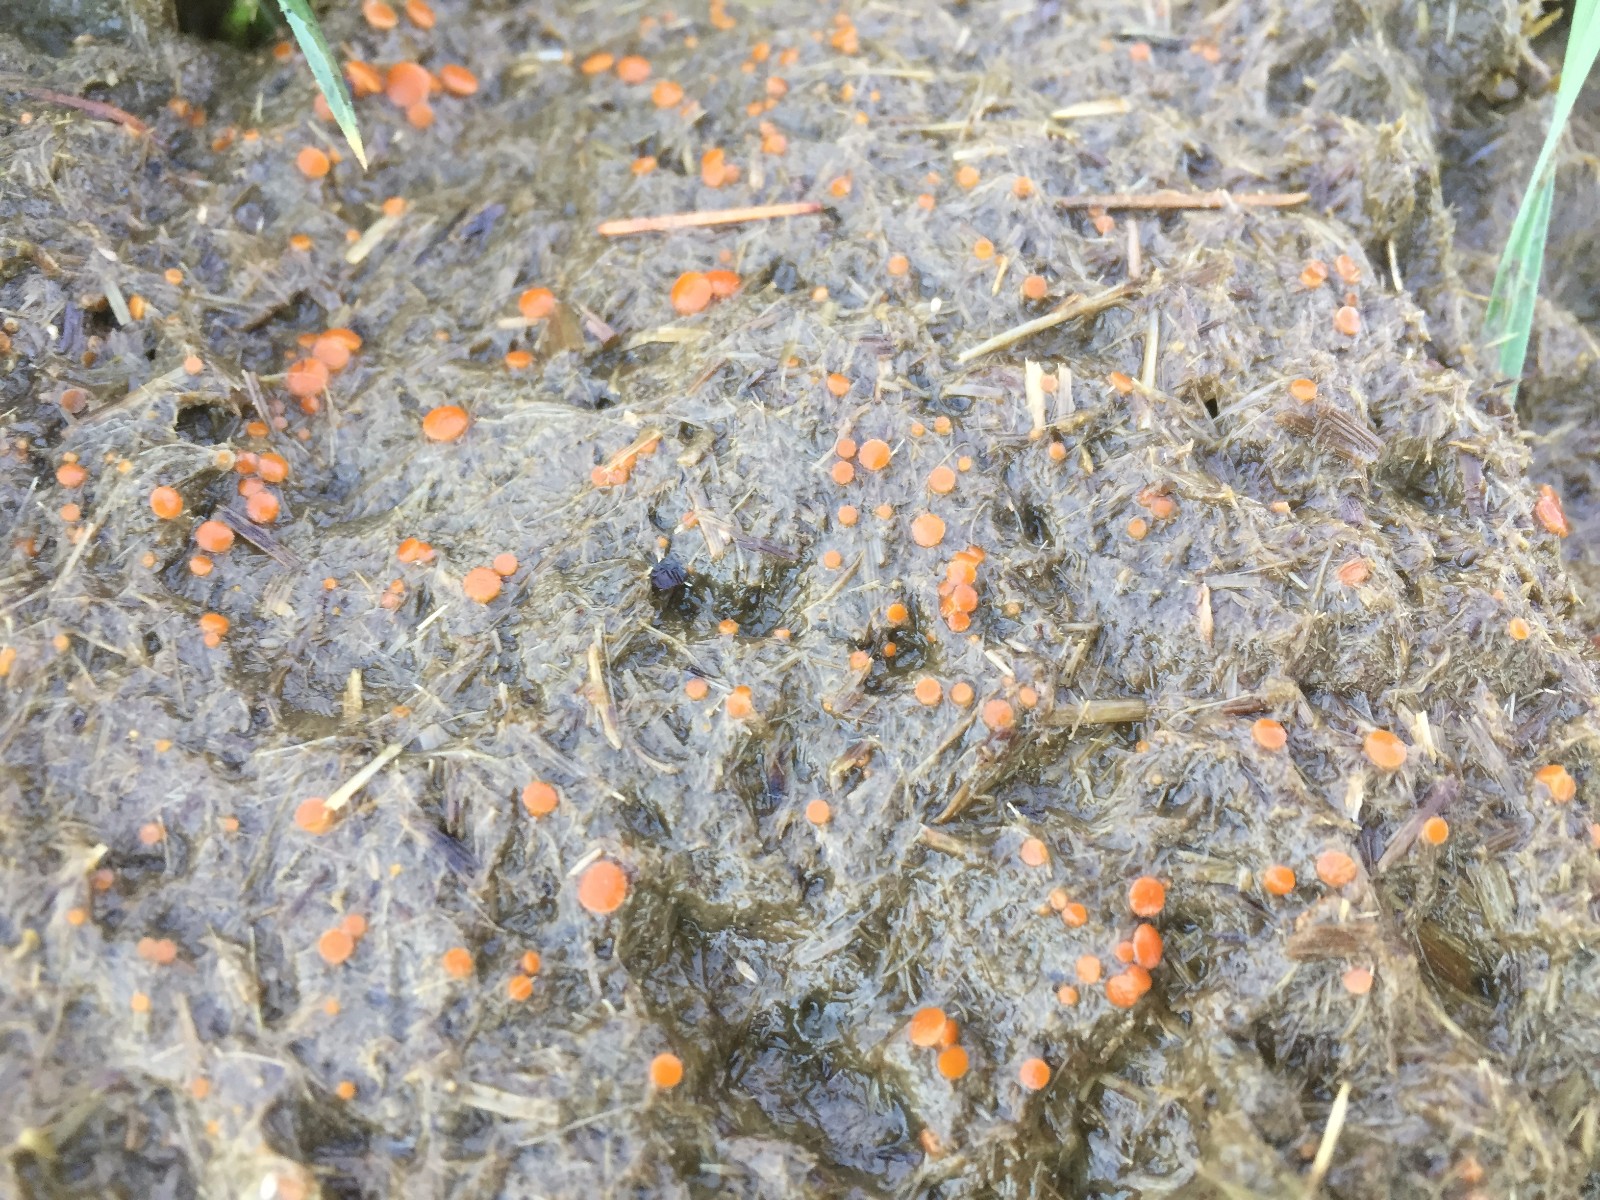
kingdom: Fungi
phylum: Ascomycota
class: Pezizomycetes
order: Pezizales
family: Pyronemataceae
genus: Cheilymenia
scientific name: Cheilymenia granulata
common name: møgbæger
